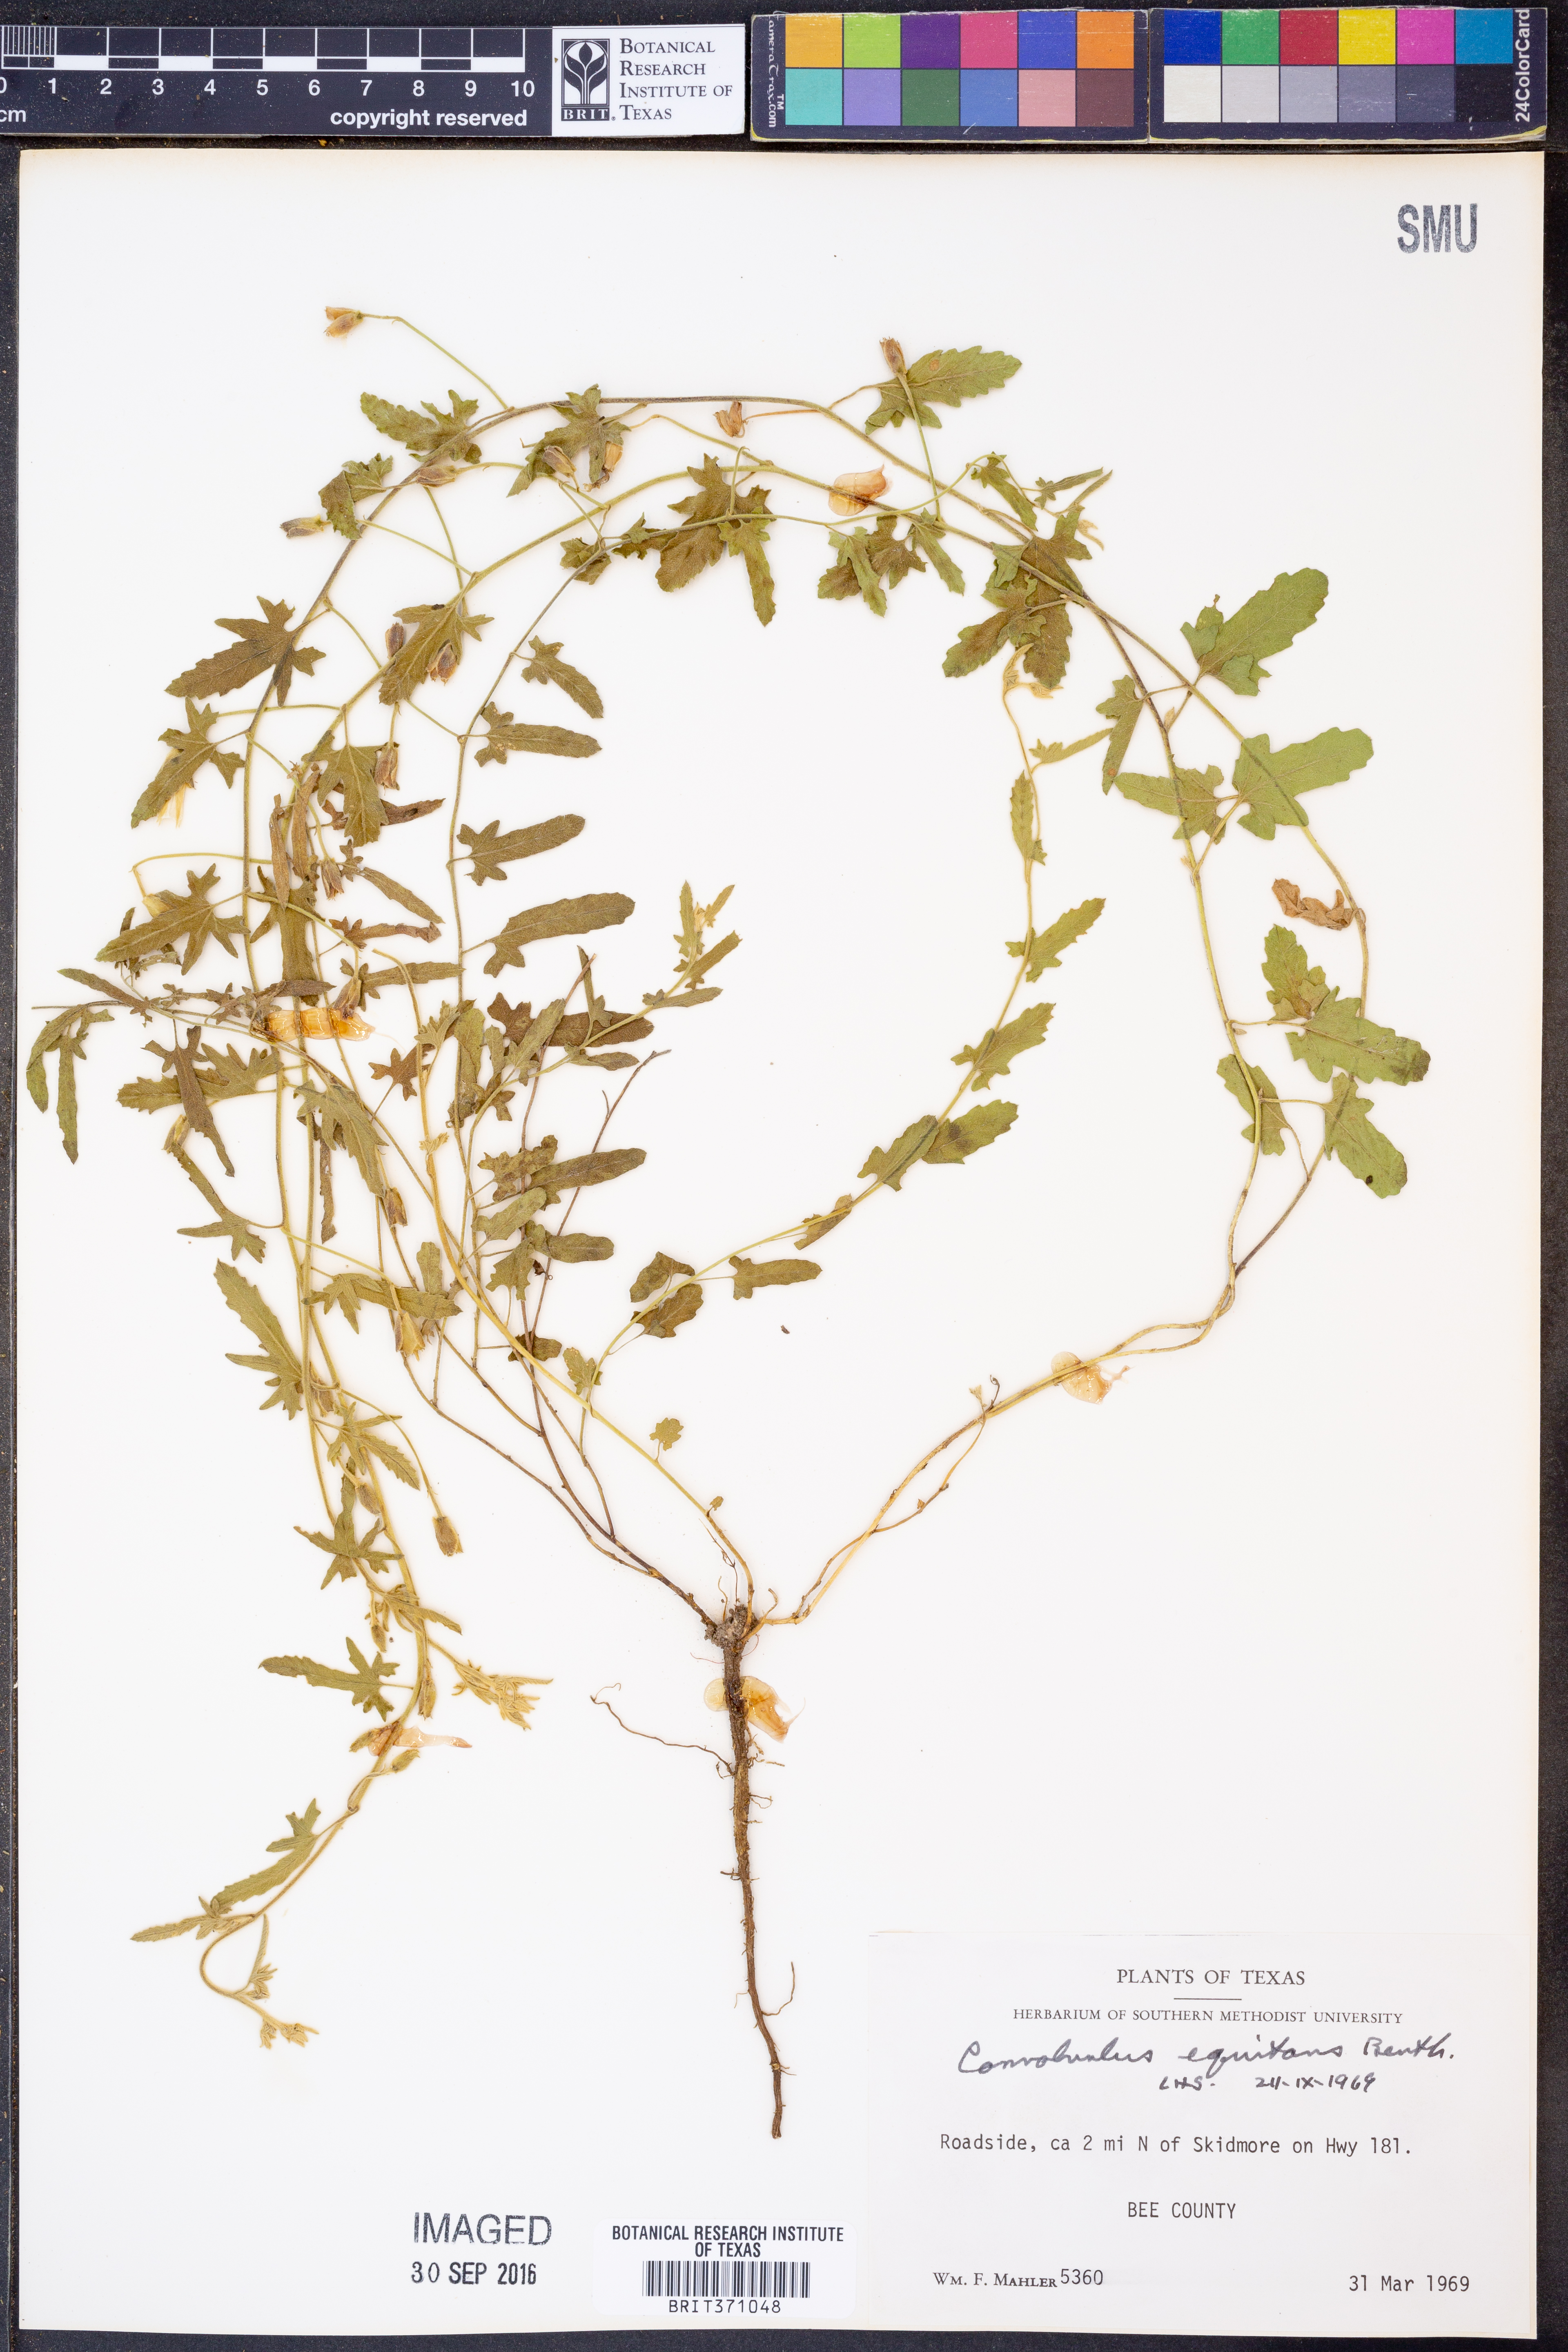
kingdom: Plantae
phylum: Tracheophyta
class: Magnoliopsida
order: Solanales
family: Convolvulaceae
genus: Convolvulus
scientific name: Convolvulus equitans
